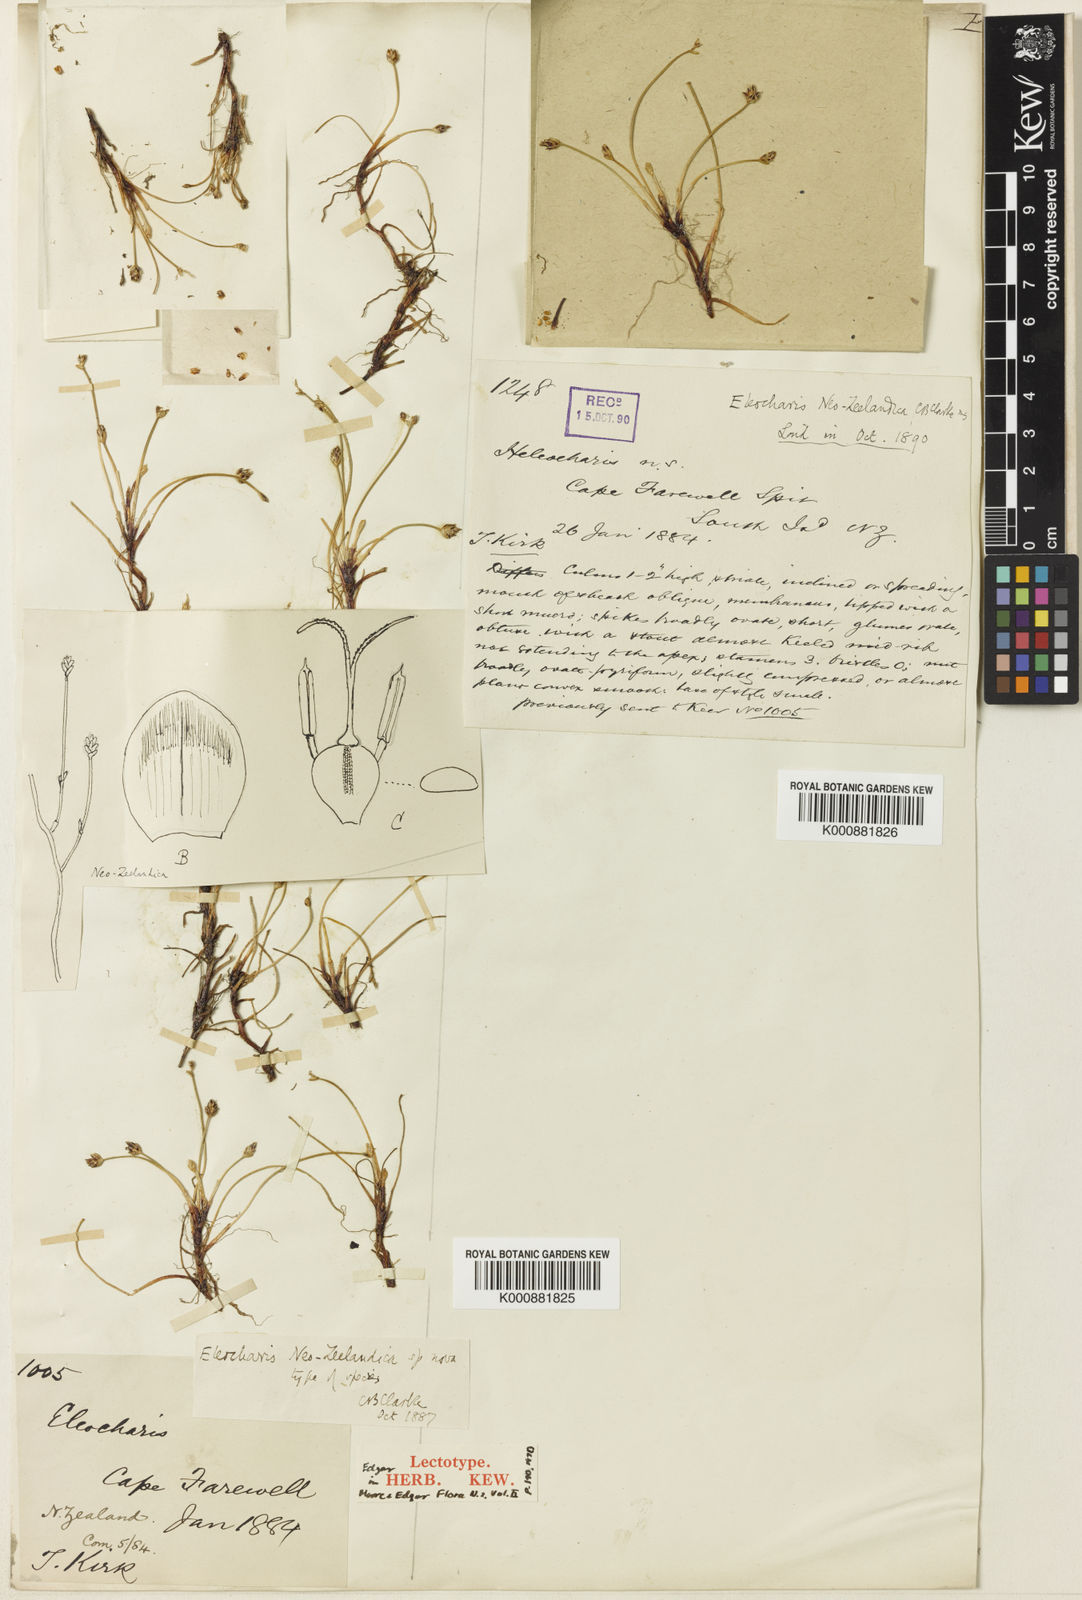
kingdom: Plantae
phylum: Tracheophyta
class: Liliopsida
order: Poales
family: Cyperaceae
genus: Eleocharis
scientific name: Eleocharis neozelandica
